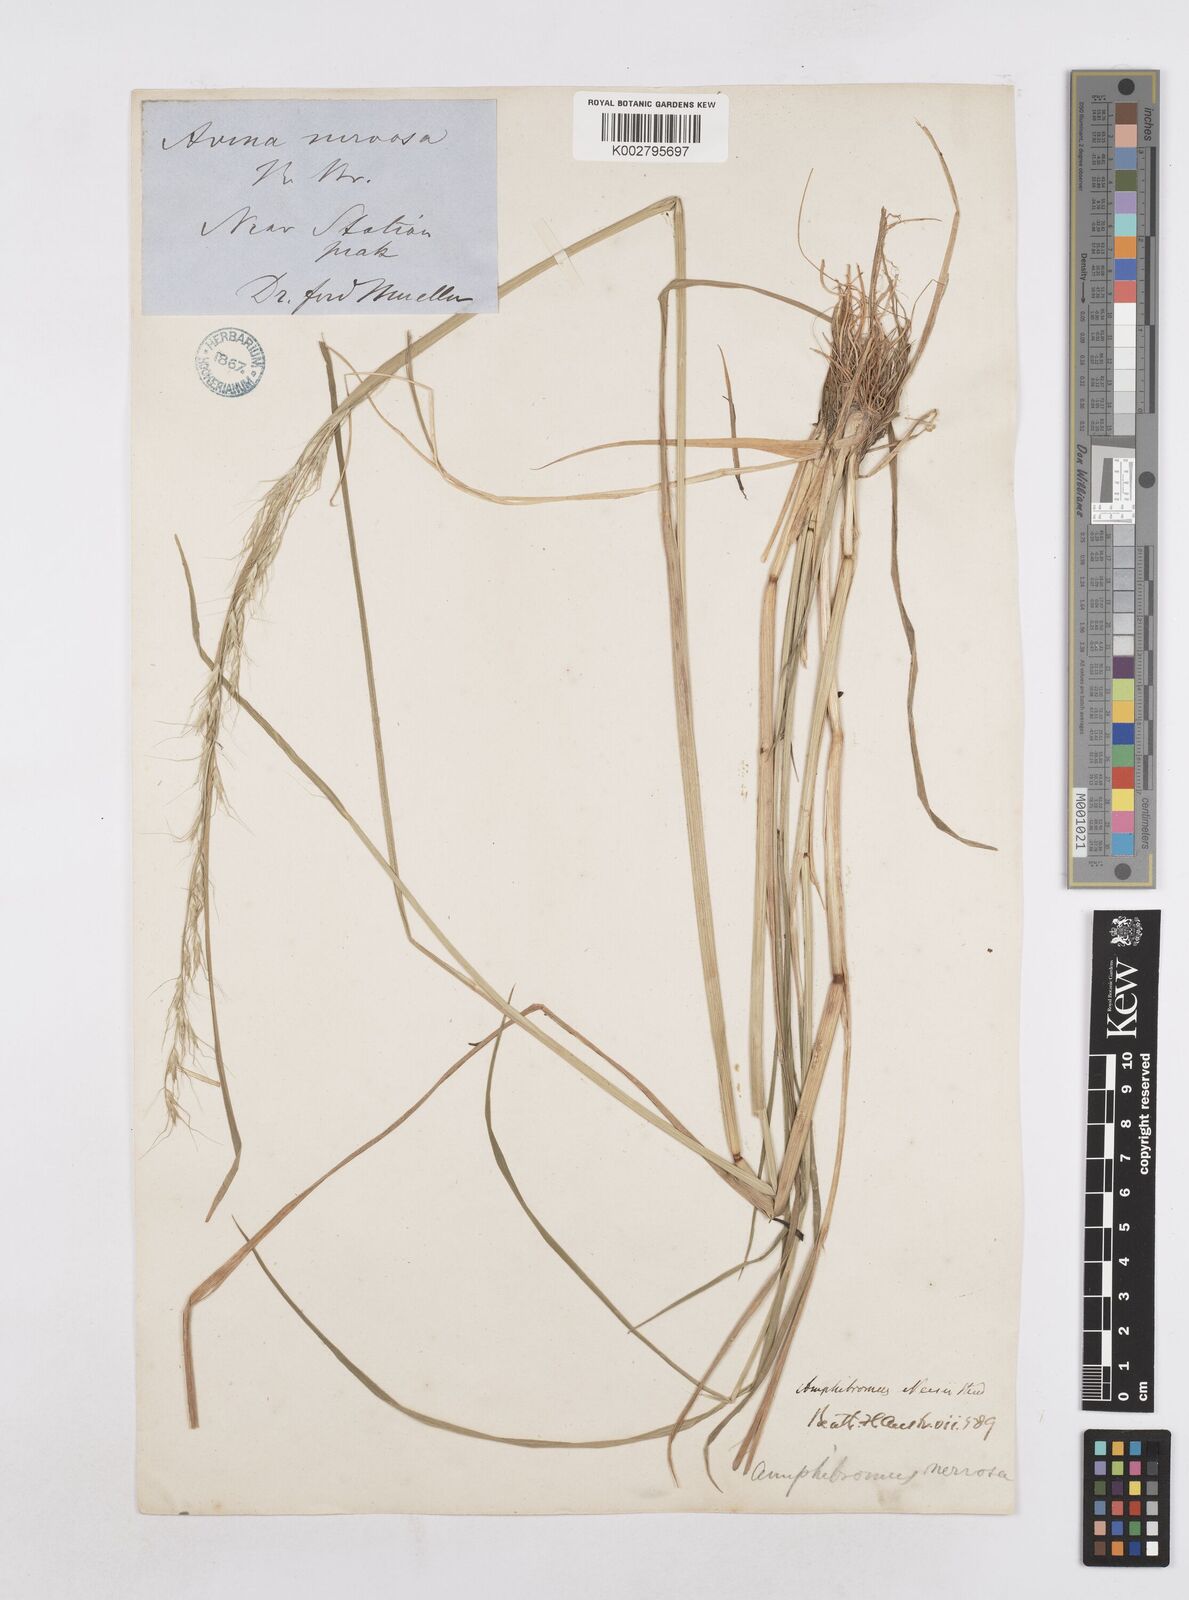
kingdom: Plantae
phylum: Tracheophyta
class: Liliopsida
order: Poales
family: Poaceae
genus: Amphibromus
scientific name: Amphibromus neesii
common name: Australian wallaby grass
